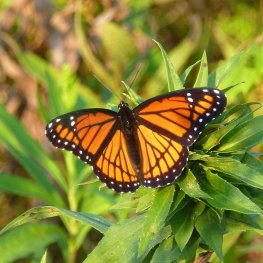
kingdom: Animalia
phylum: Arthropoda
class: Insecta
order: Lepidoptera
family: Nymphalidae
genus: Limenitis
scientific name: Limenitis archippus
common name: Viceroy
